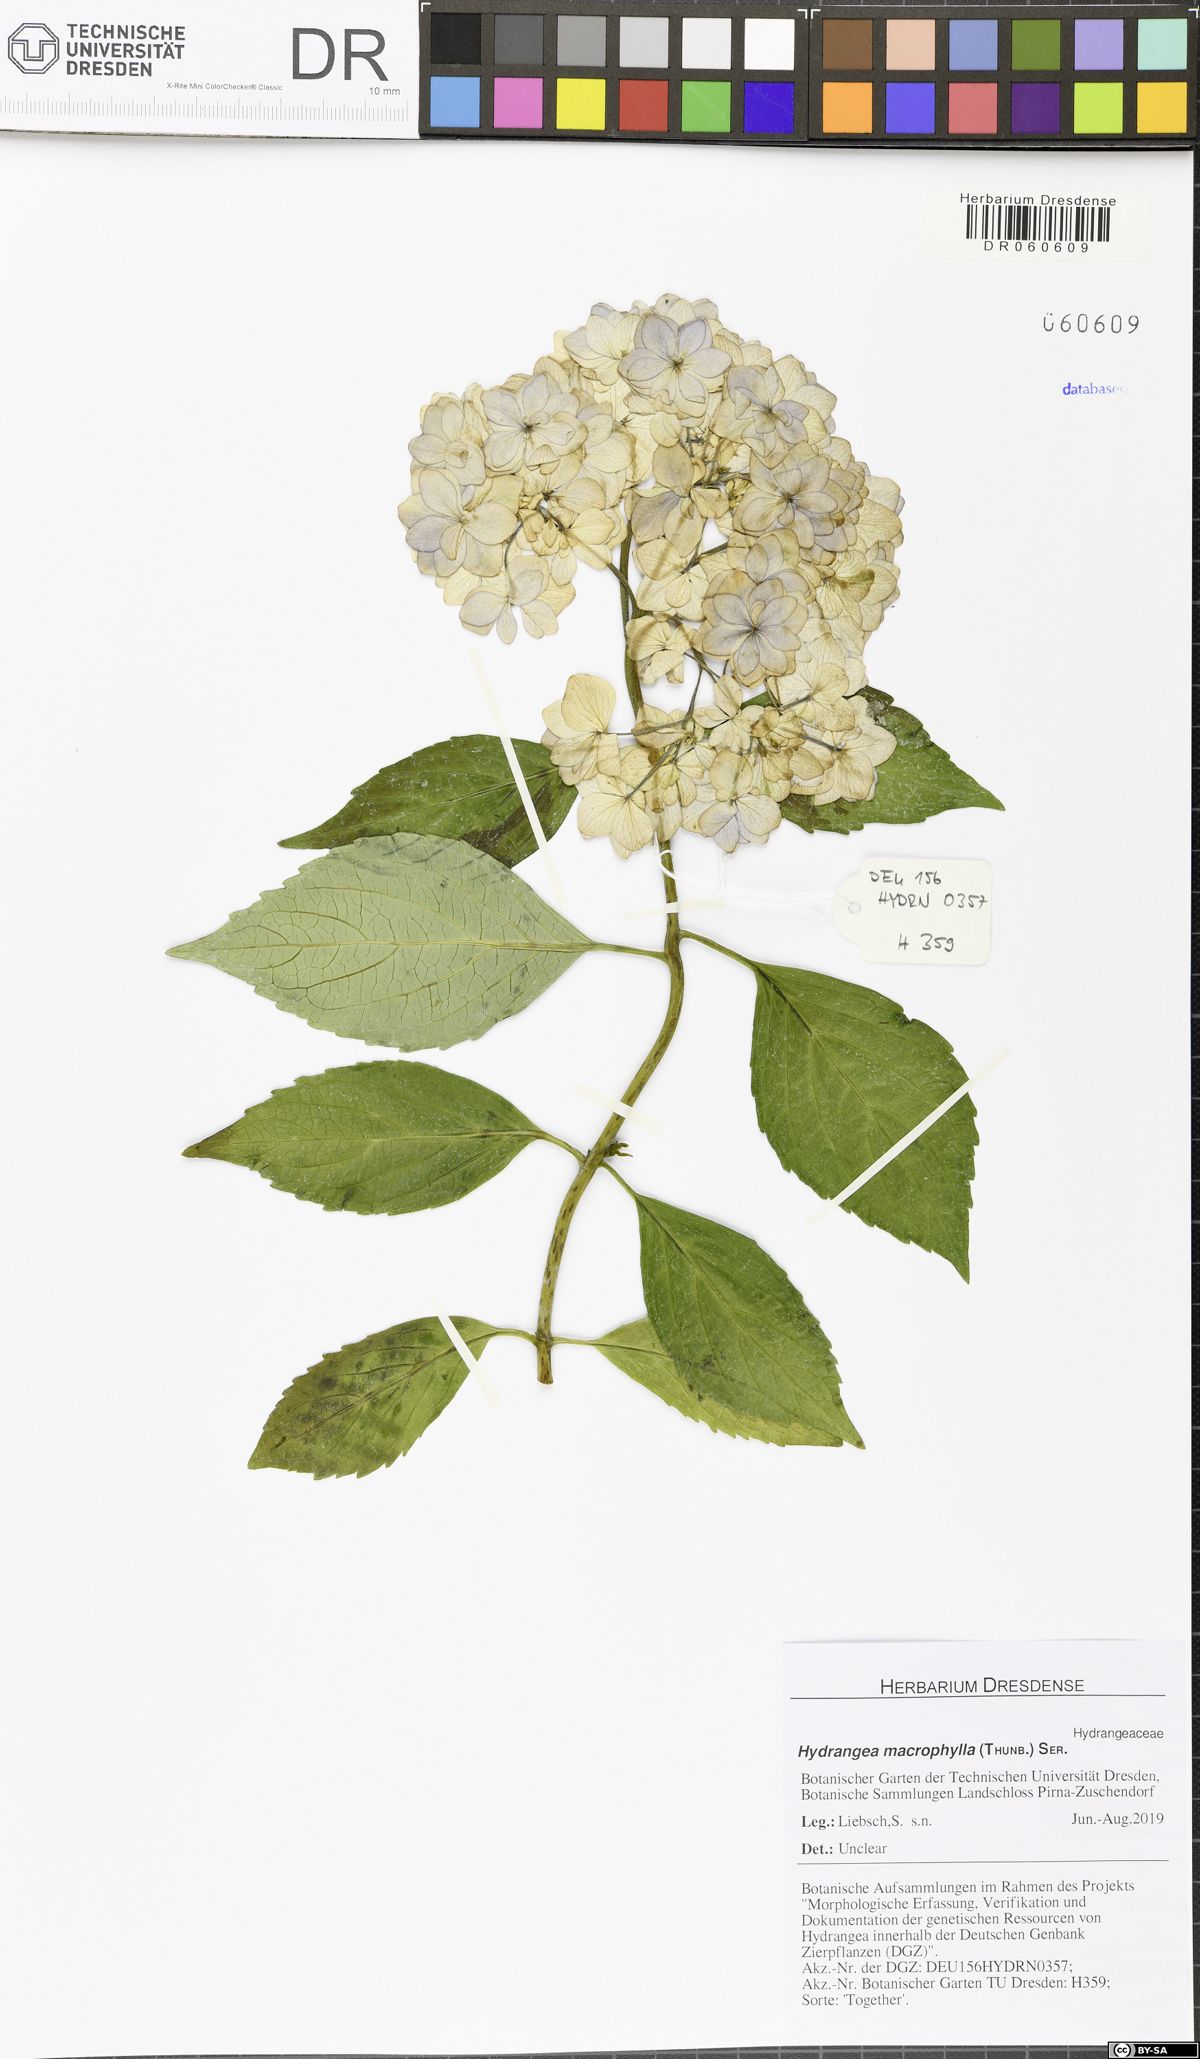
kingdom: Plantae
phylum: Tracheophyta
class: Magnoliopsida
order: Cornales
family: Hydrangeaceae
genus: Hydrangea
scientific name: Hydrangea macrophylla
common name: Hydrangea
